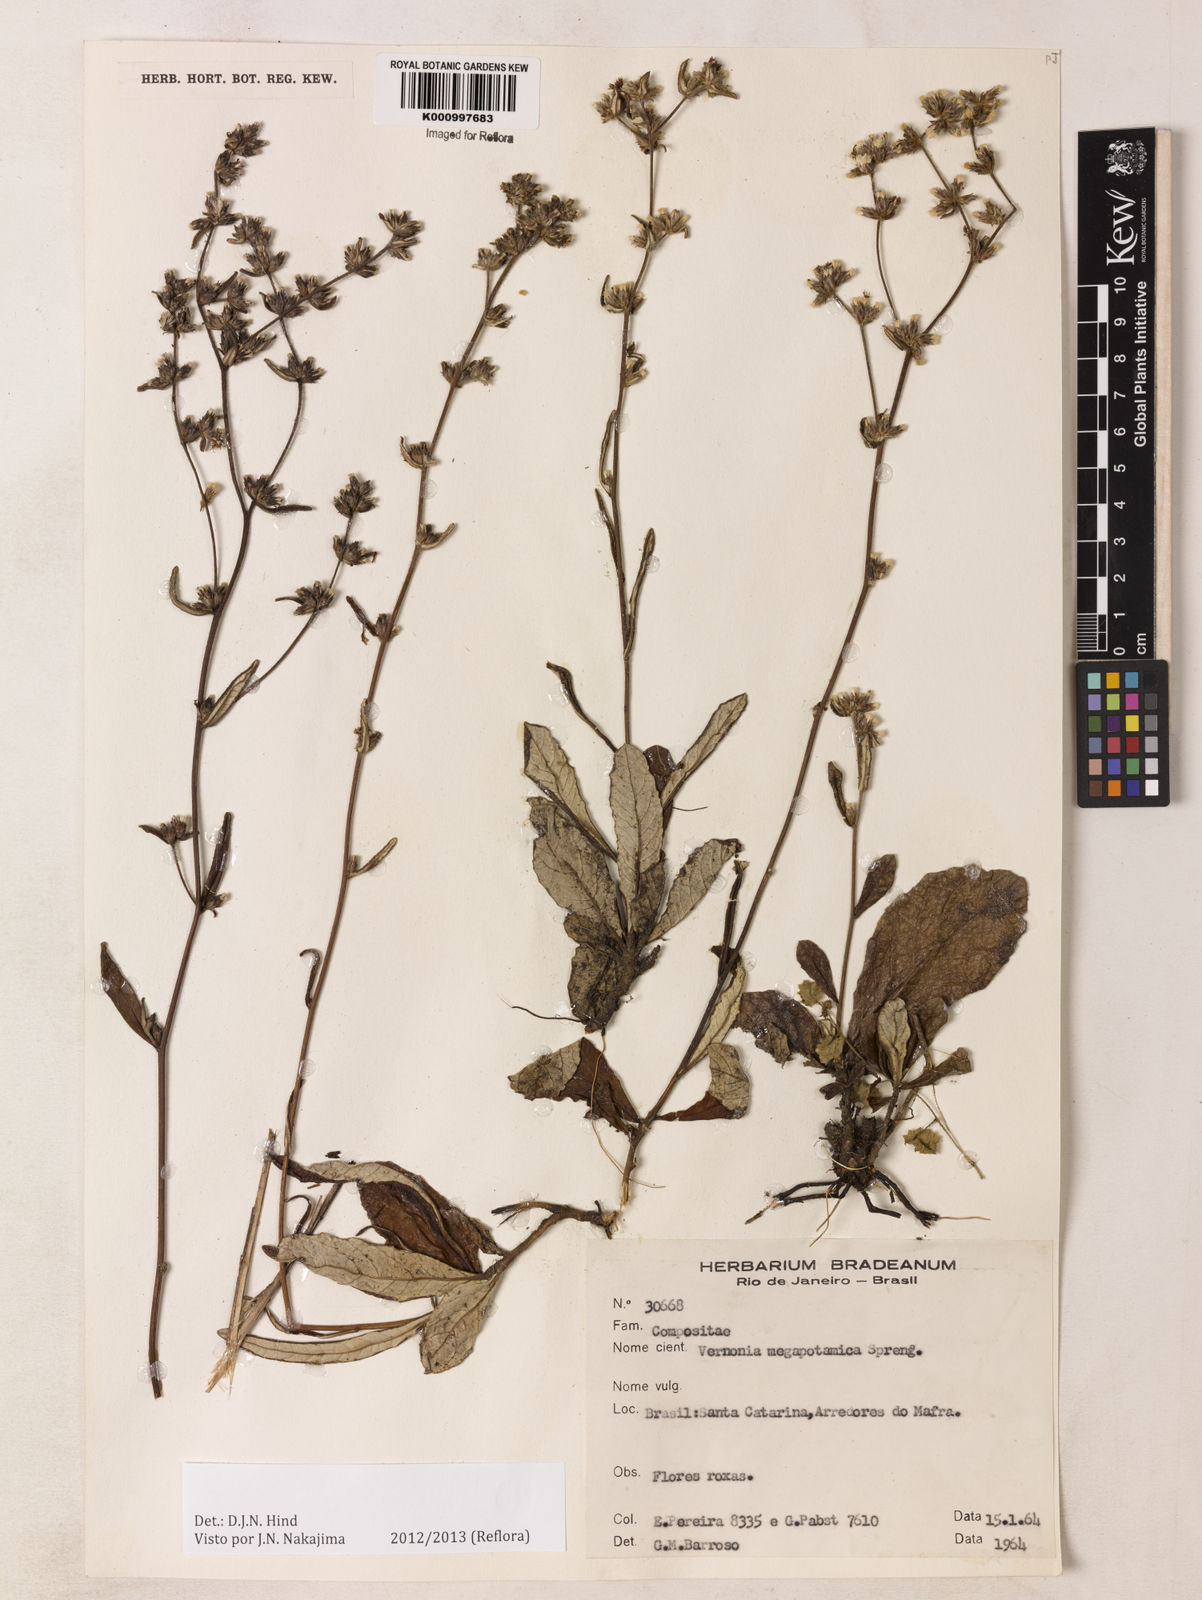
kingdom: Plantae
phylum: Tracheophyta
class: Magnoliopsida
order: Asterales
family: Asteraceae
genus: Stenocephalum
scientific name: Stenocephalum megapotamicum
